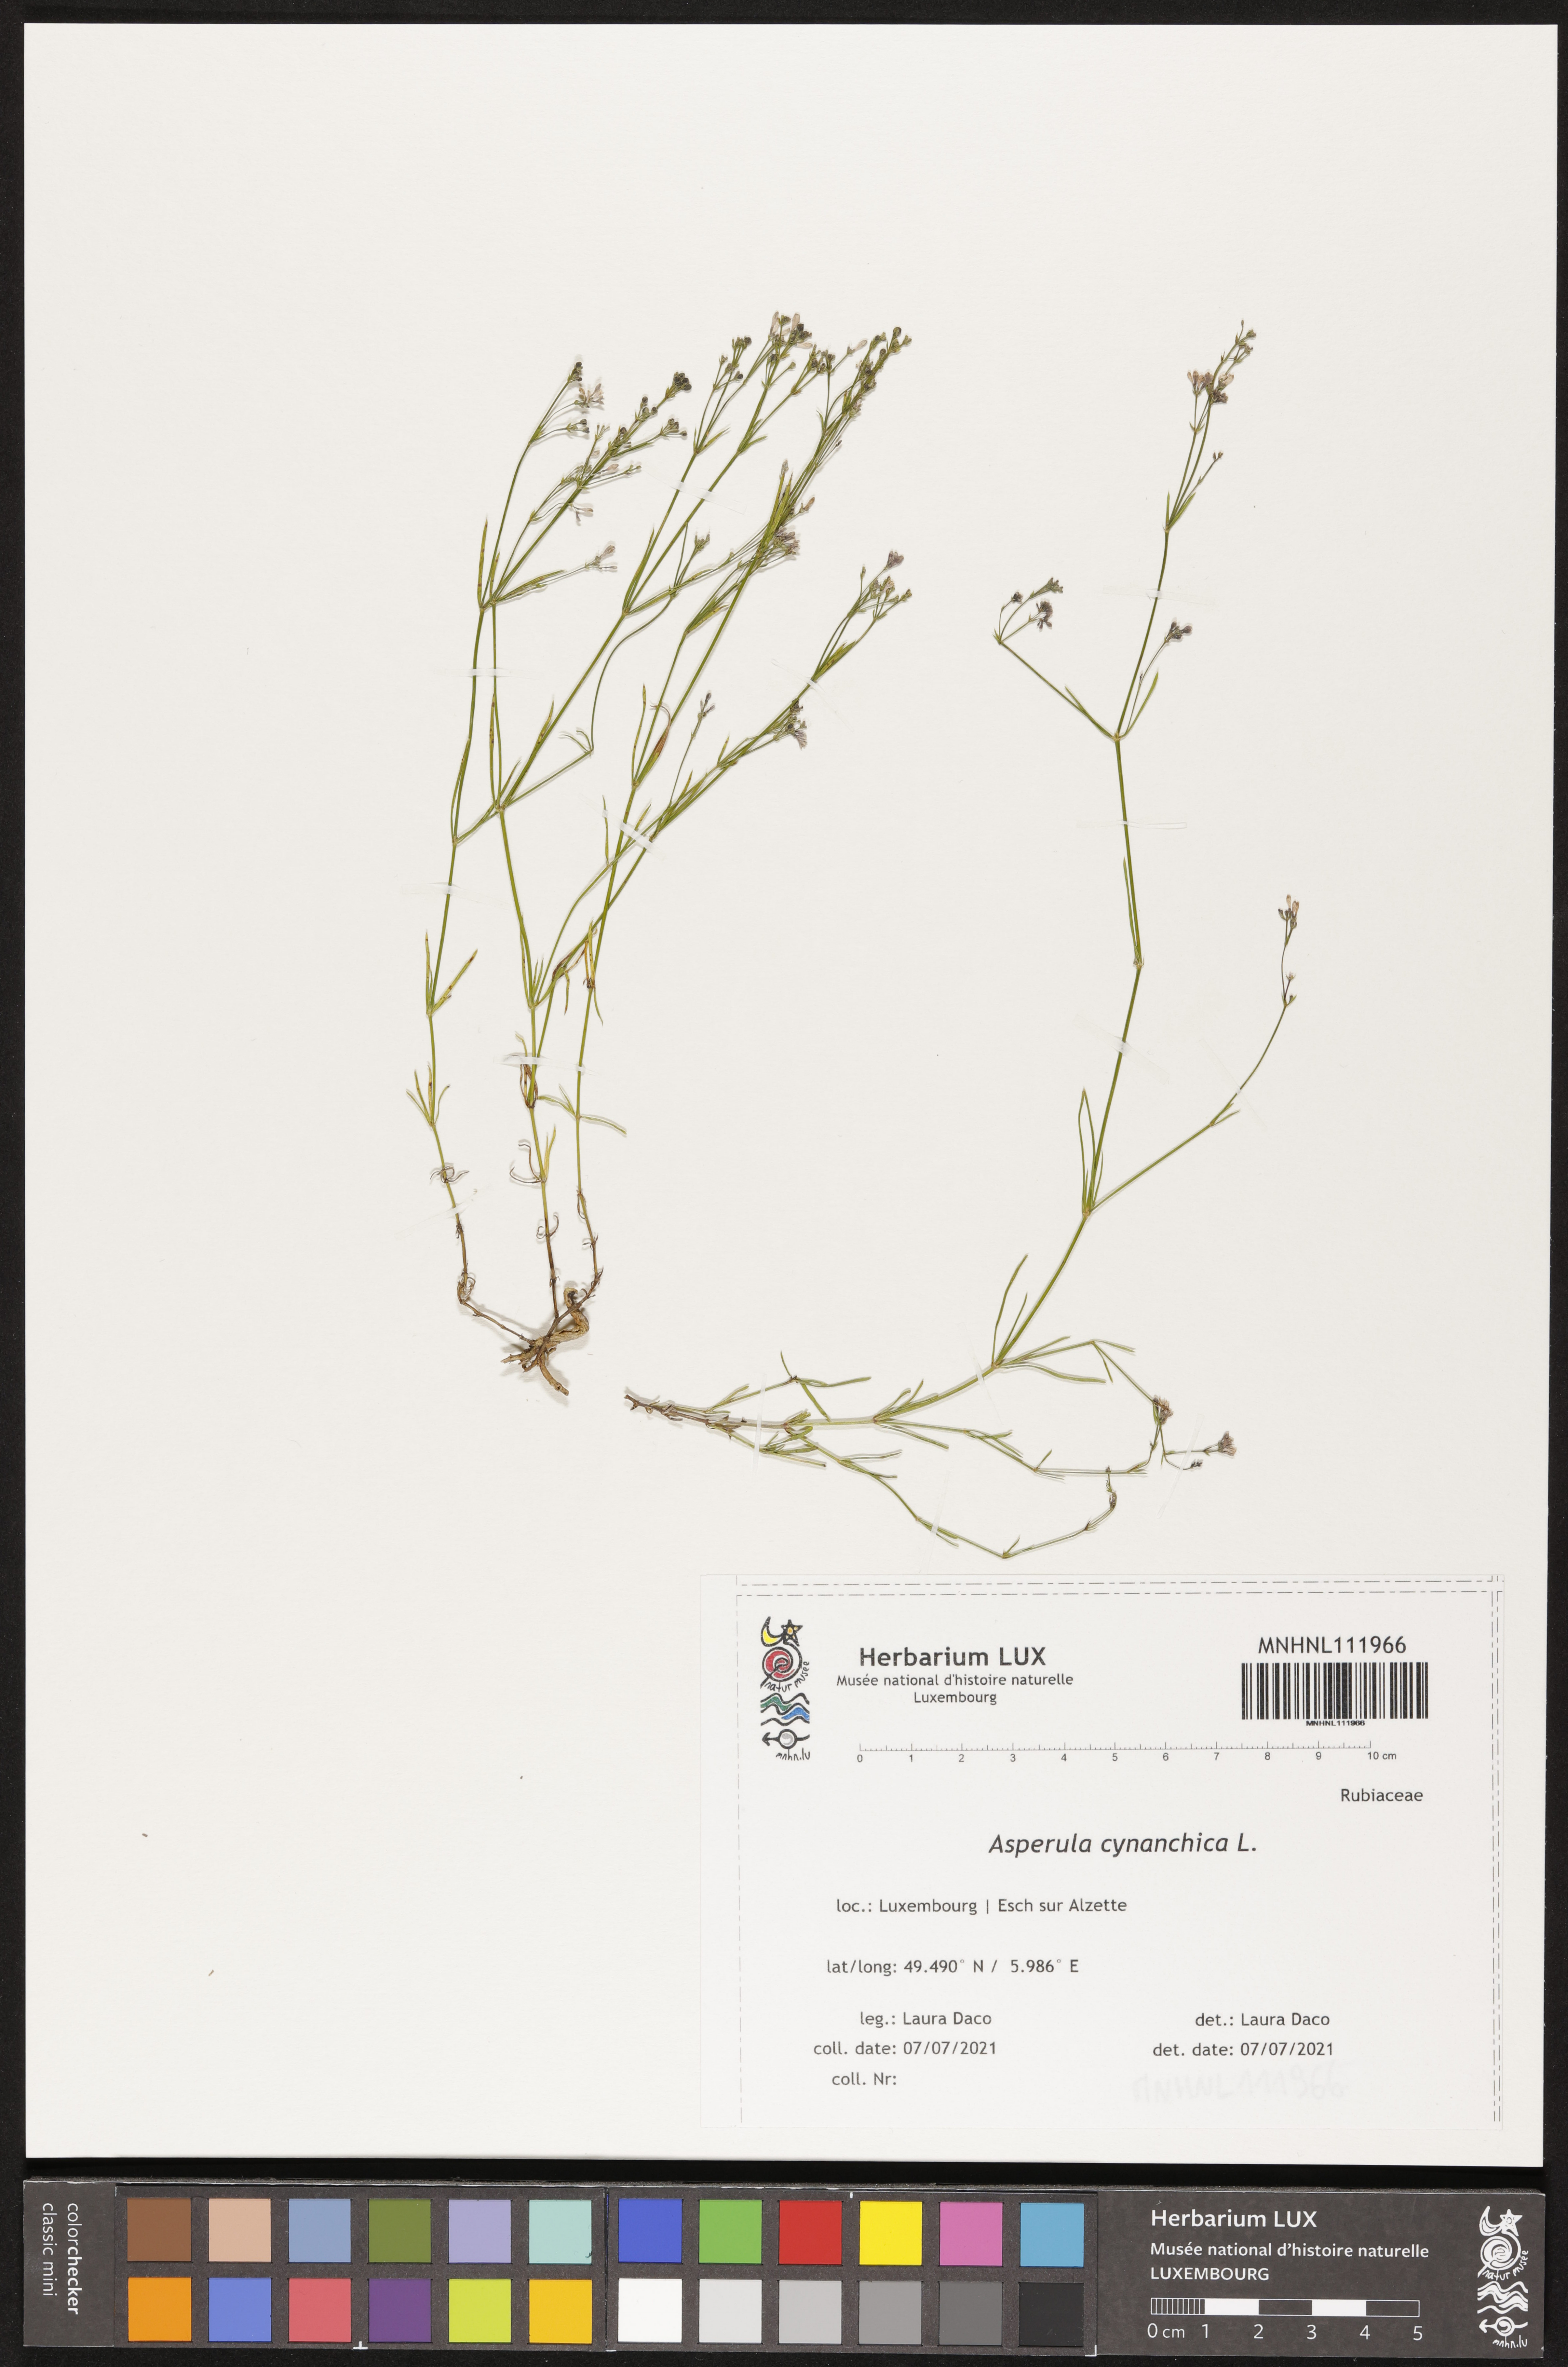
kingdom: Plantae
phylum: Tracheophyta
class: Magnoliopsida
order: Gentianales
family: Rubiaceae
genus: Cynanchica
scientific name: Cynanchica pyrenaica
